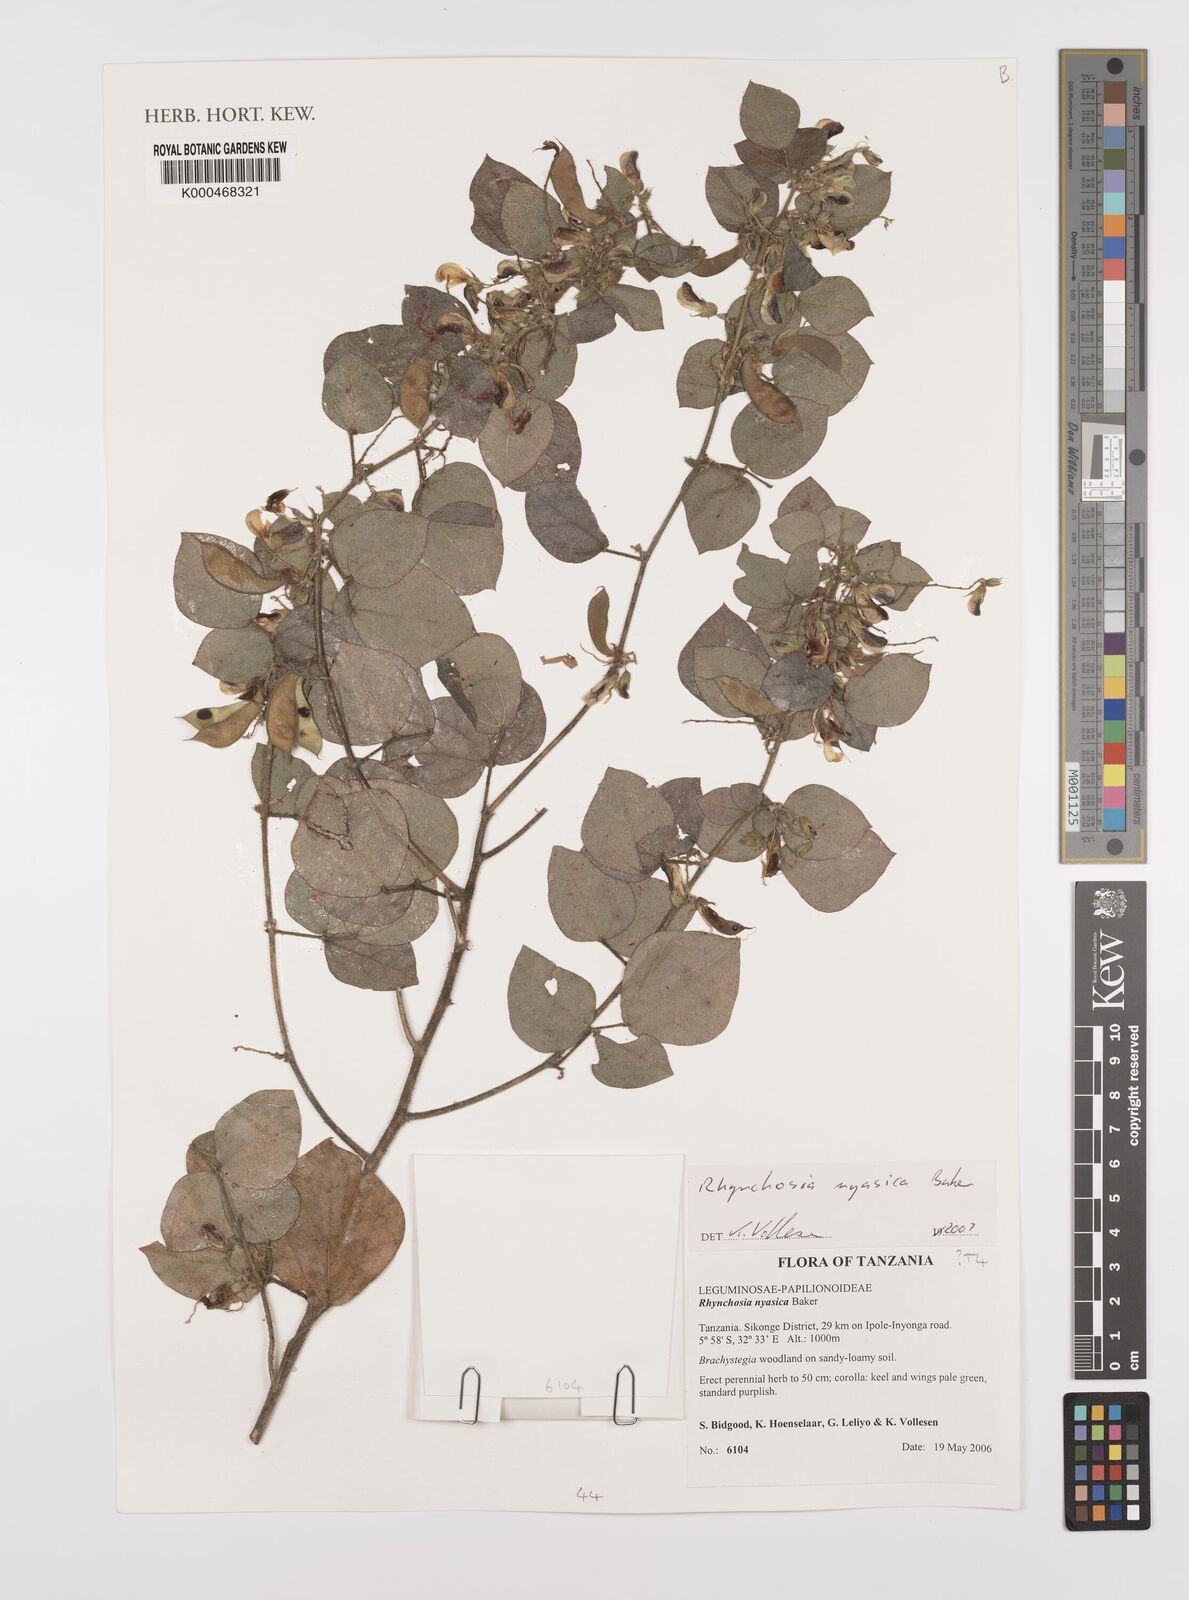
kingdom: Plantae
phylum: Tracheophyta
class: Magnoliopsida
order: Fabales
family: Fabaceae
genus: Rhynchosia
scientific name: Rhynchosia nyasica
